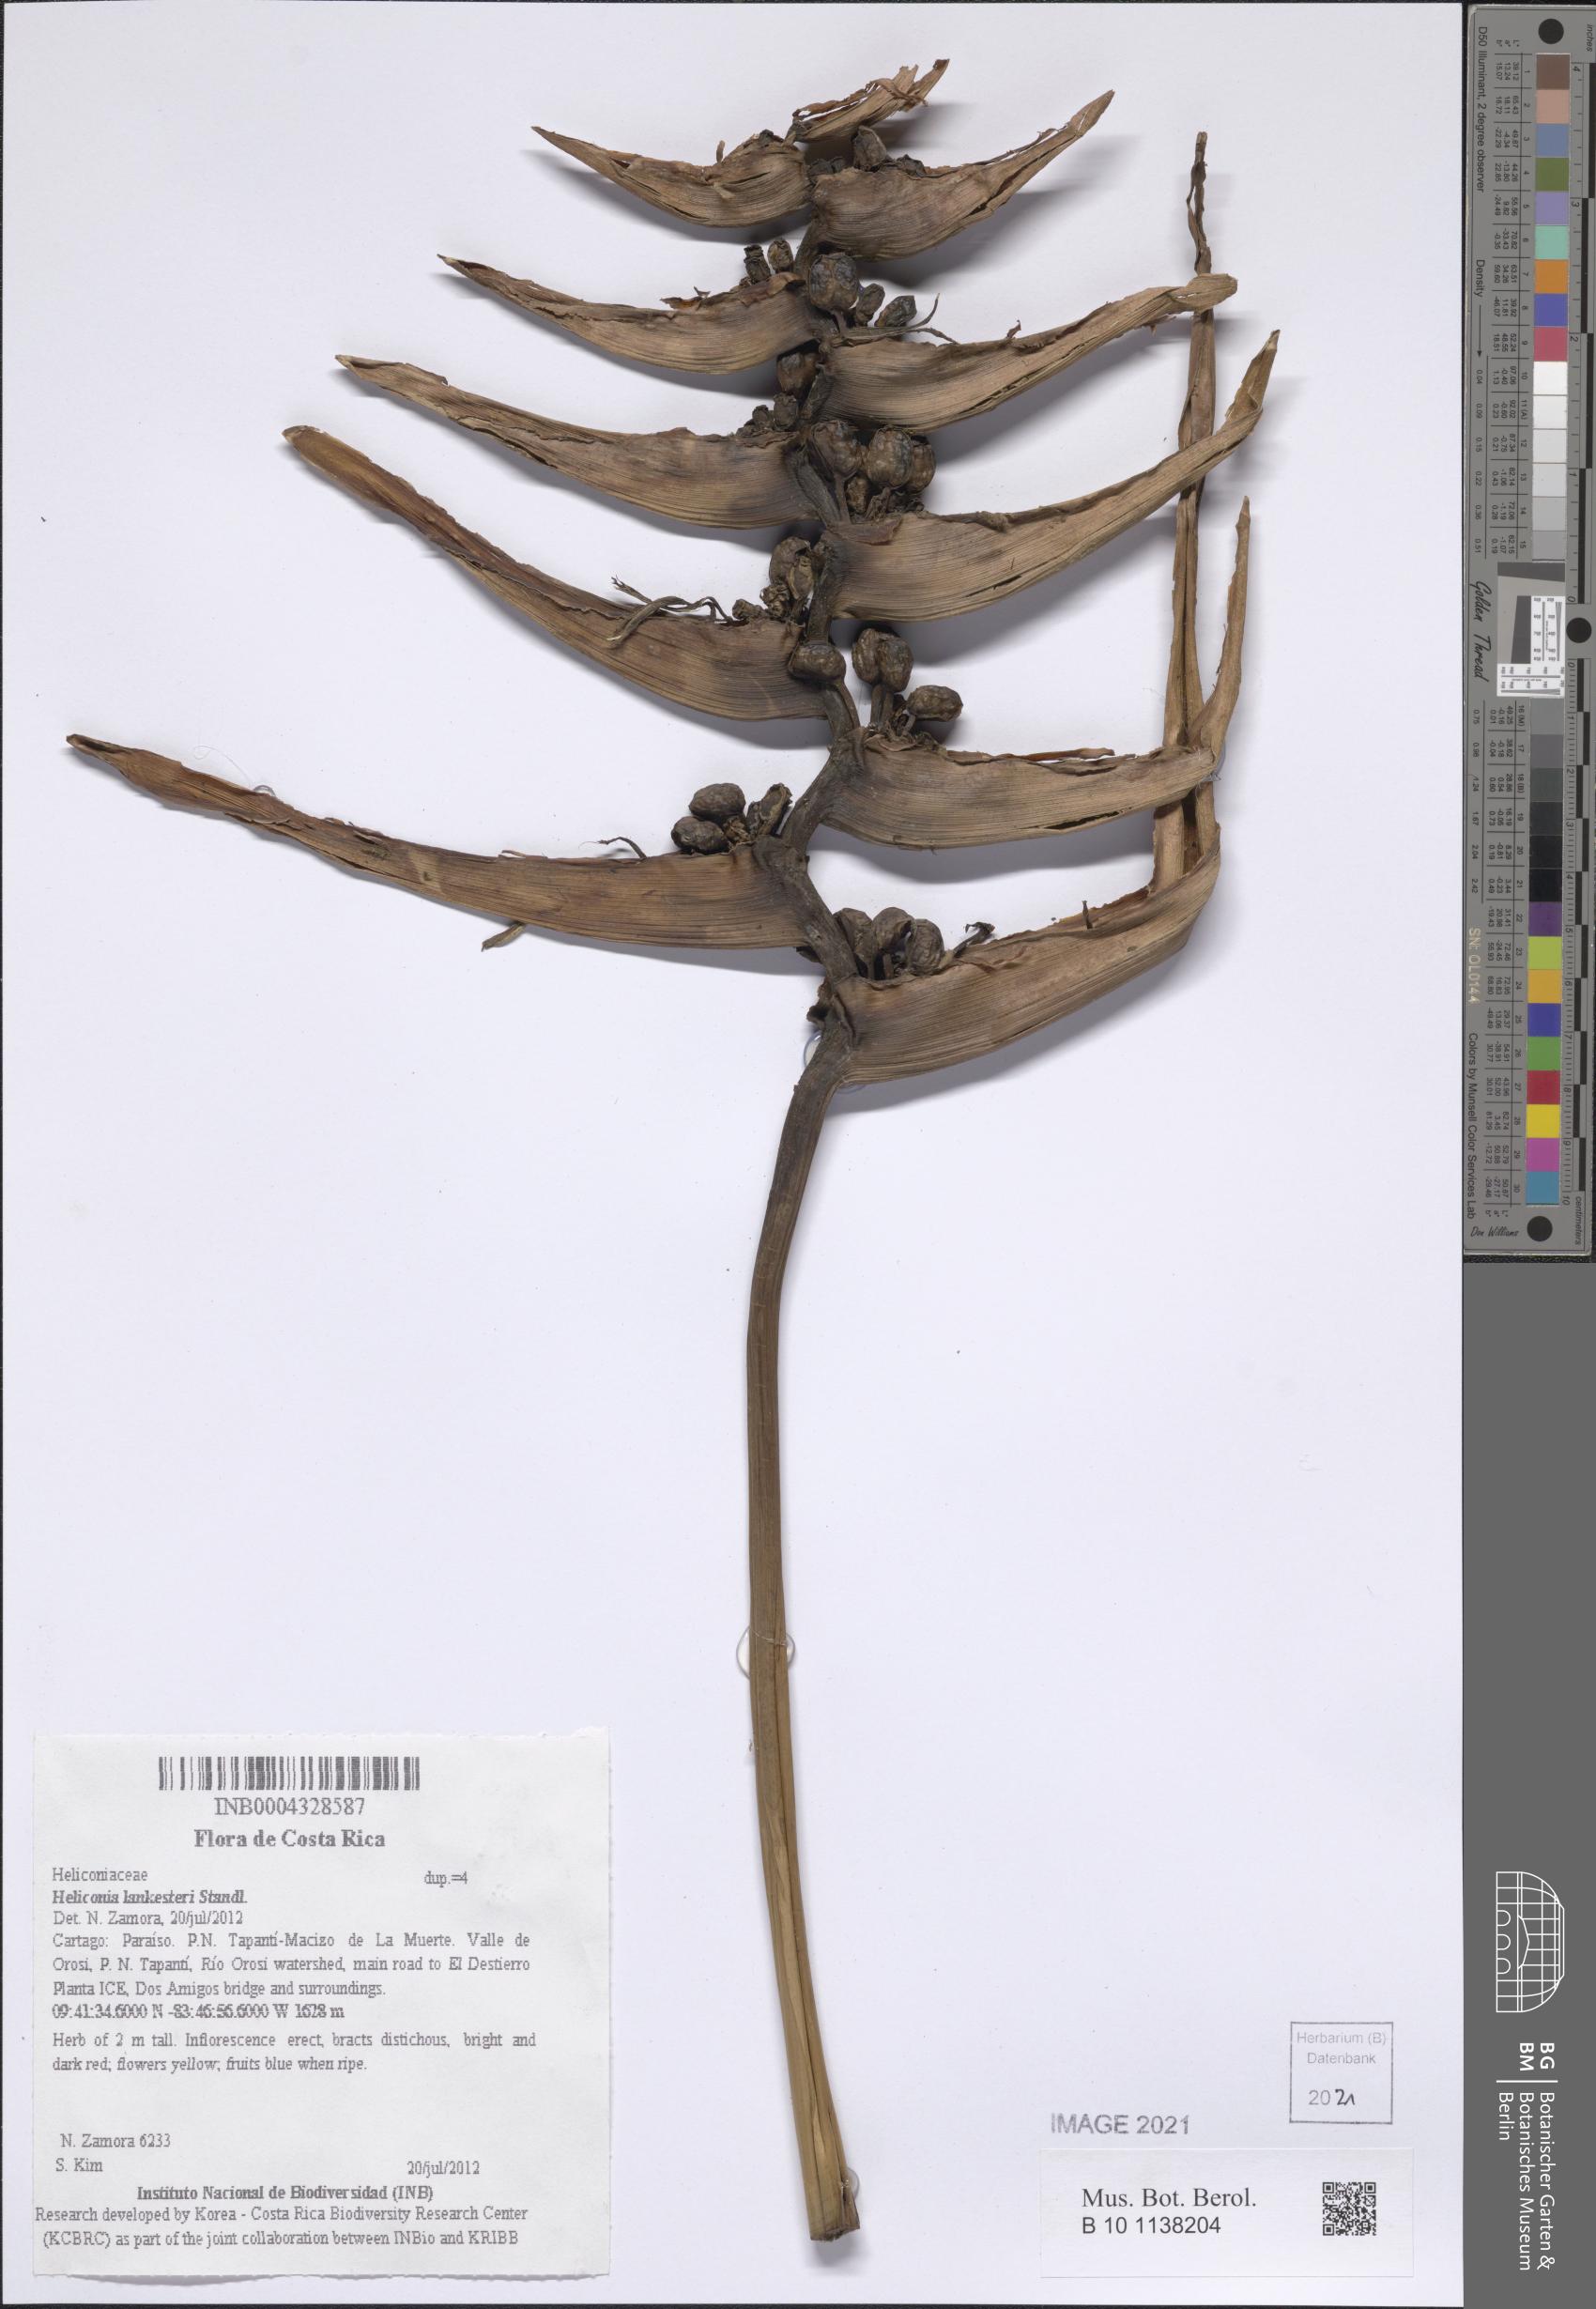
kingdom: Plantae
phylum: Tracheophyta
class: Liliopsida
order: Zingiberales
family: Heliconiaceae
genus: Heliconia
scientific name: Heliconia lankesteri
